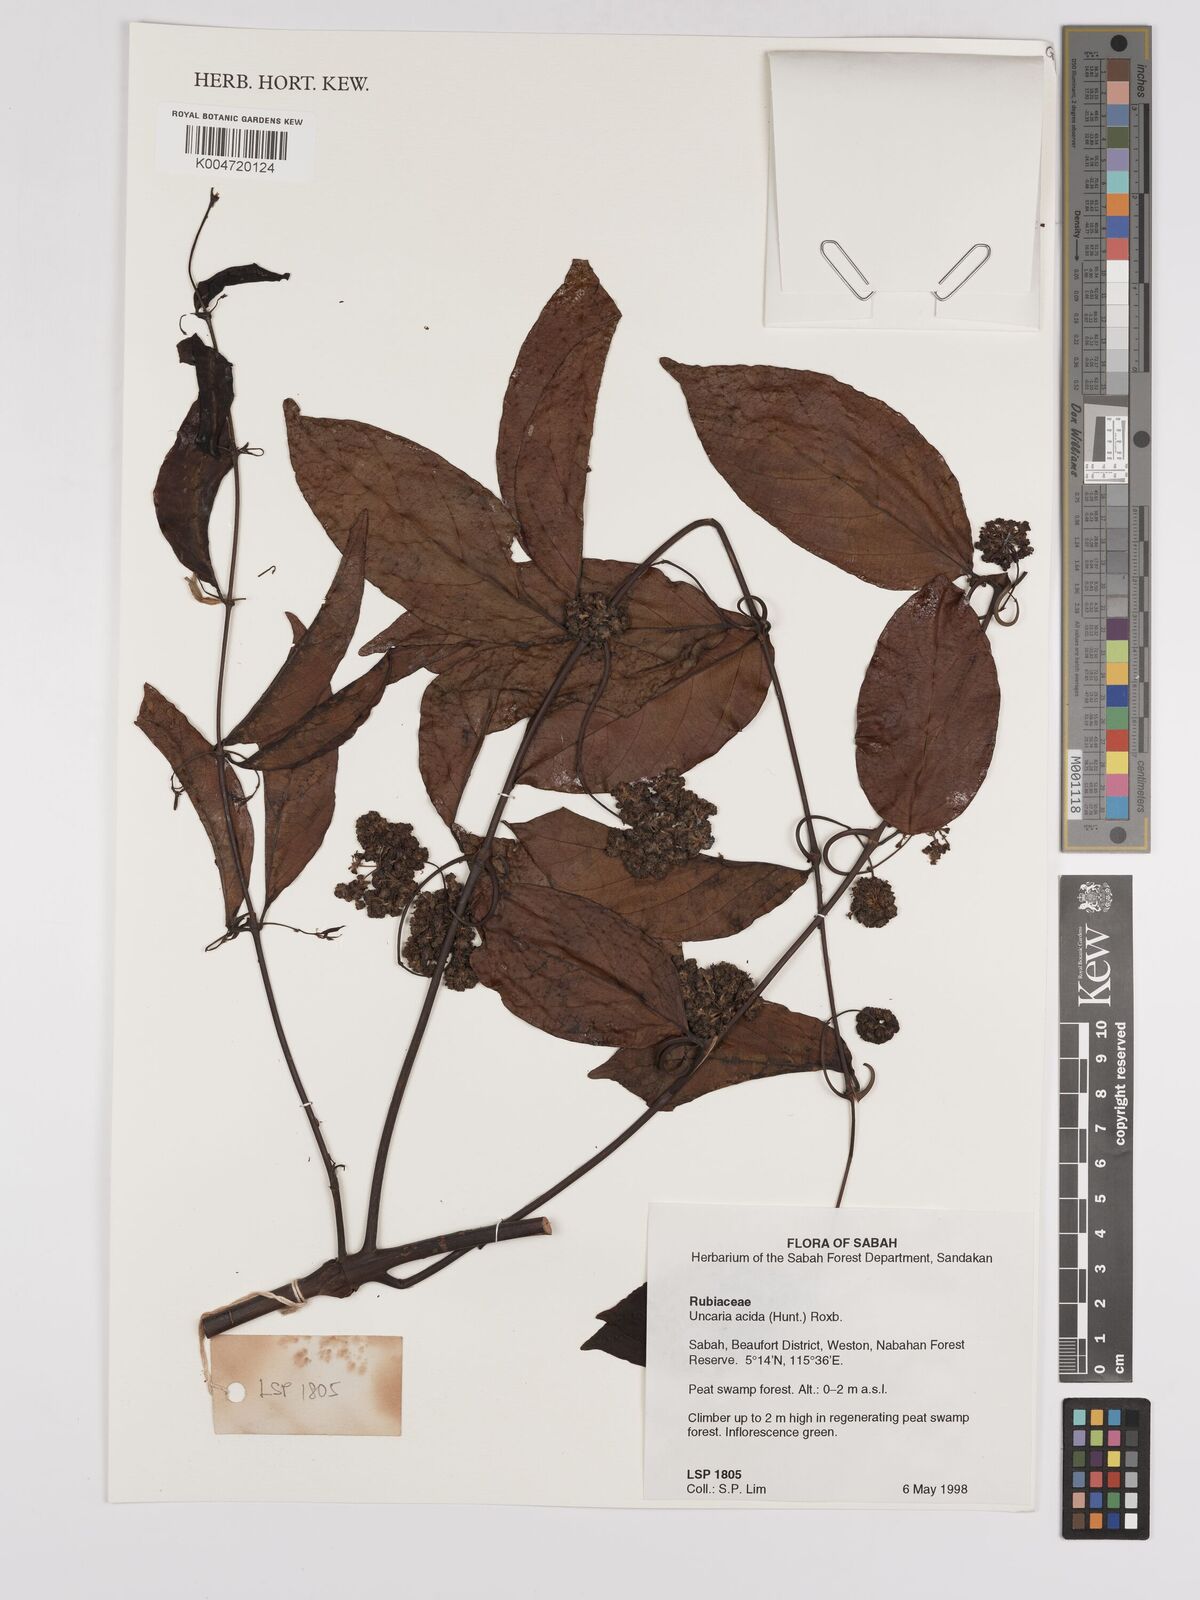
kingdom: Plantae
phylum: Tracheophyta
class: Magnoliopsida
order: Gentianales
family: Rubiaceae
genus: Uncaria
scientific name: Uncaria
